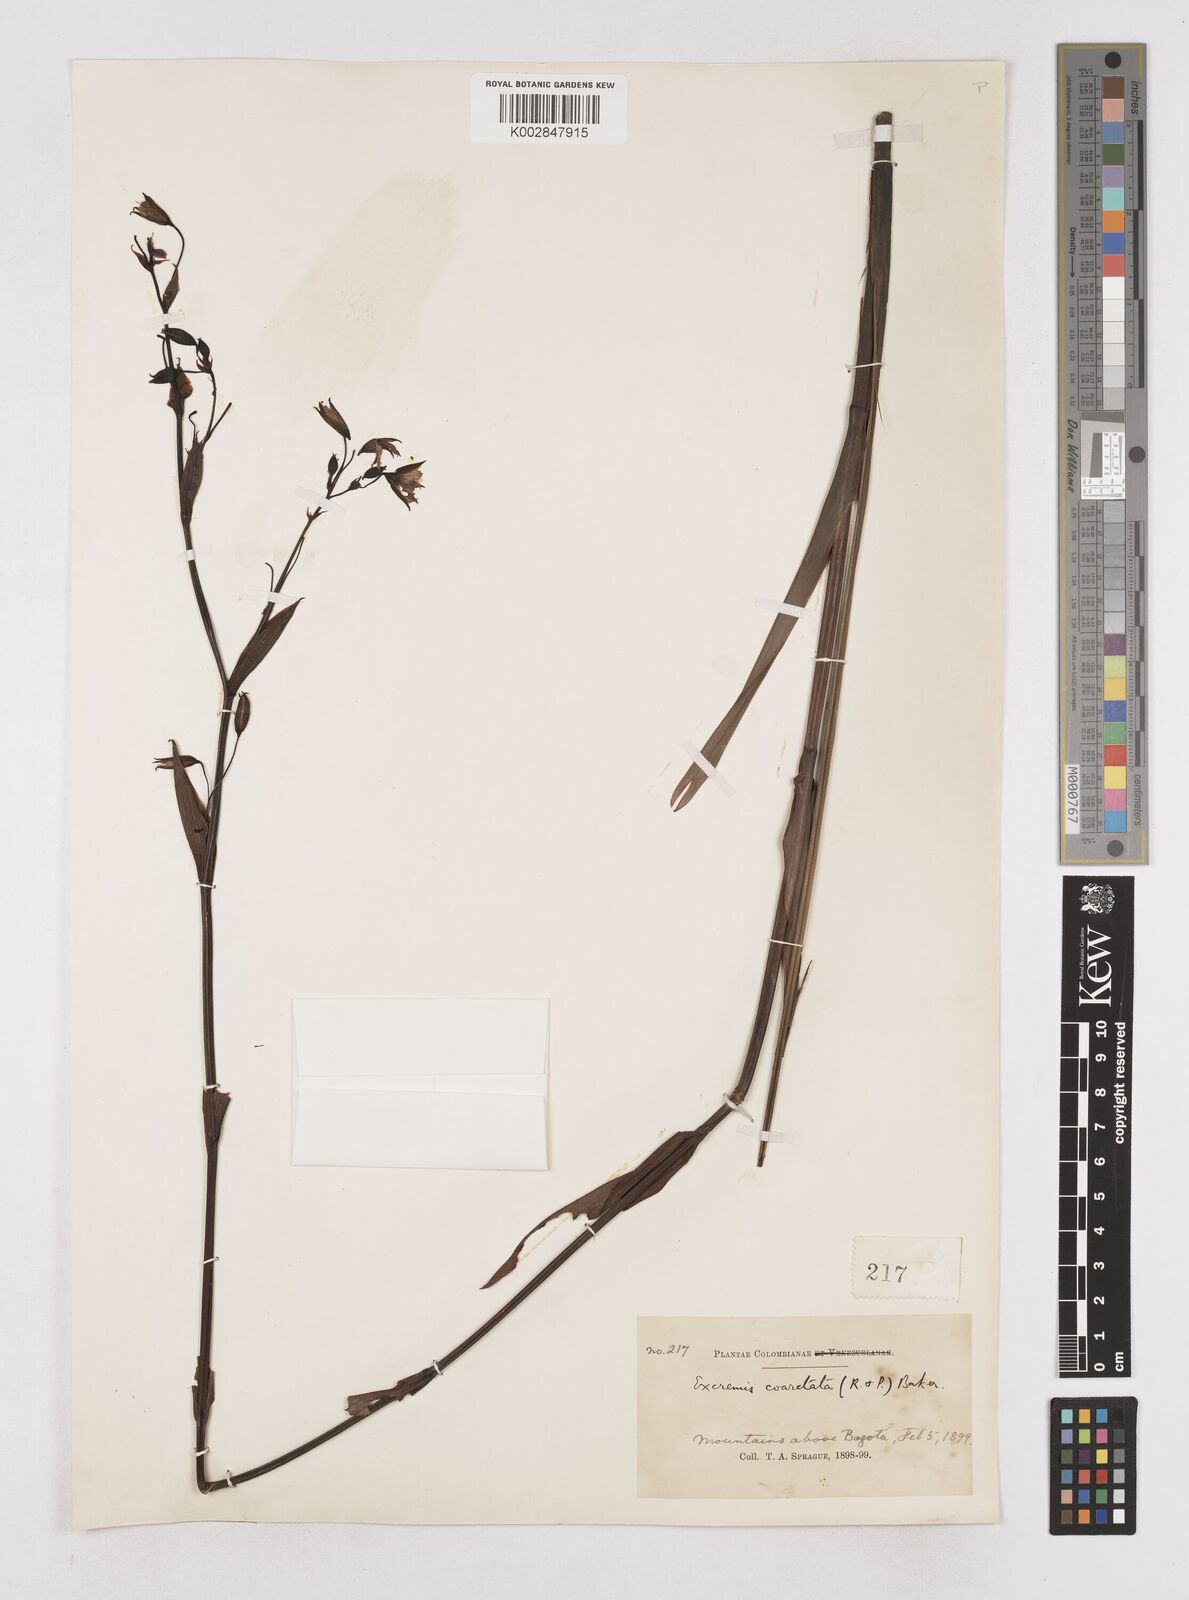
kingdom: Plantae
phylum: Tracheophyta
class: Liliopsida
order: Asparagales
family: Asphodelaceae
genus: Excremis
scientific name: Excremis coarctata
